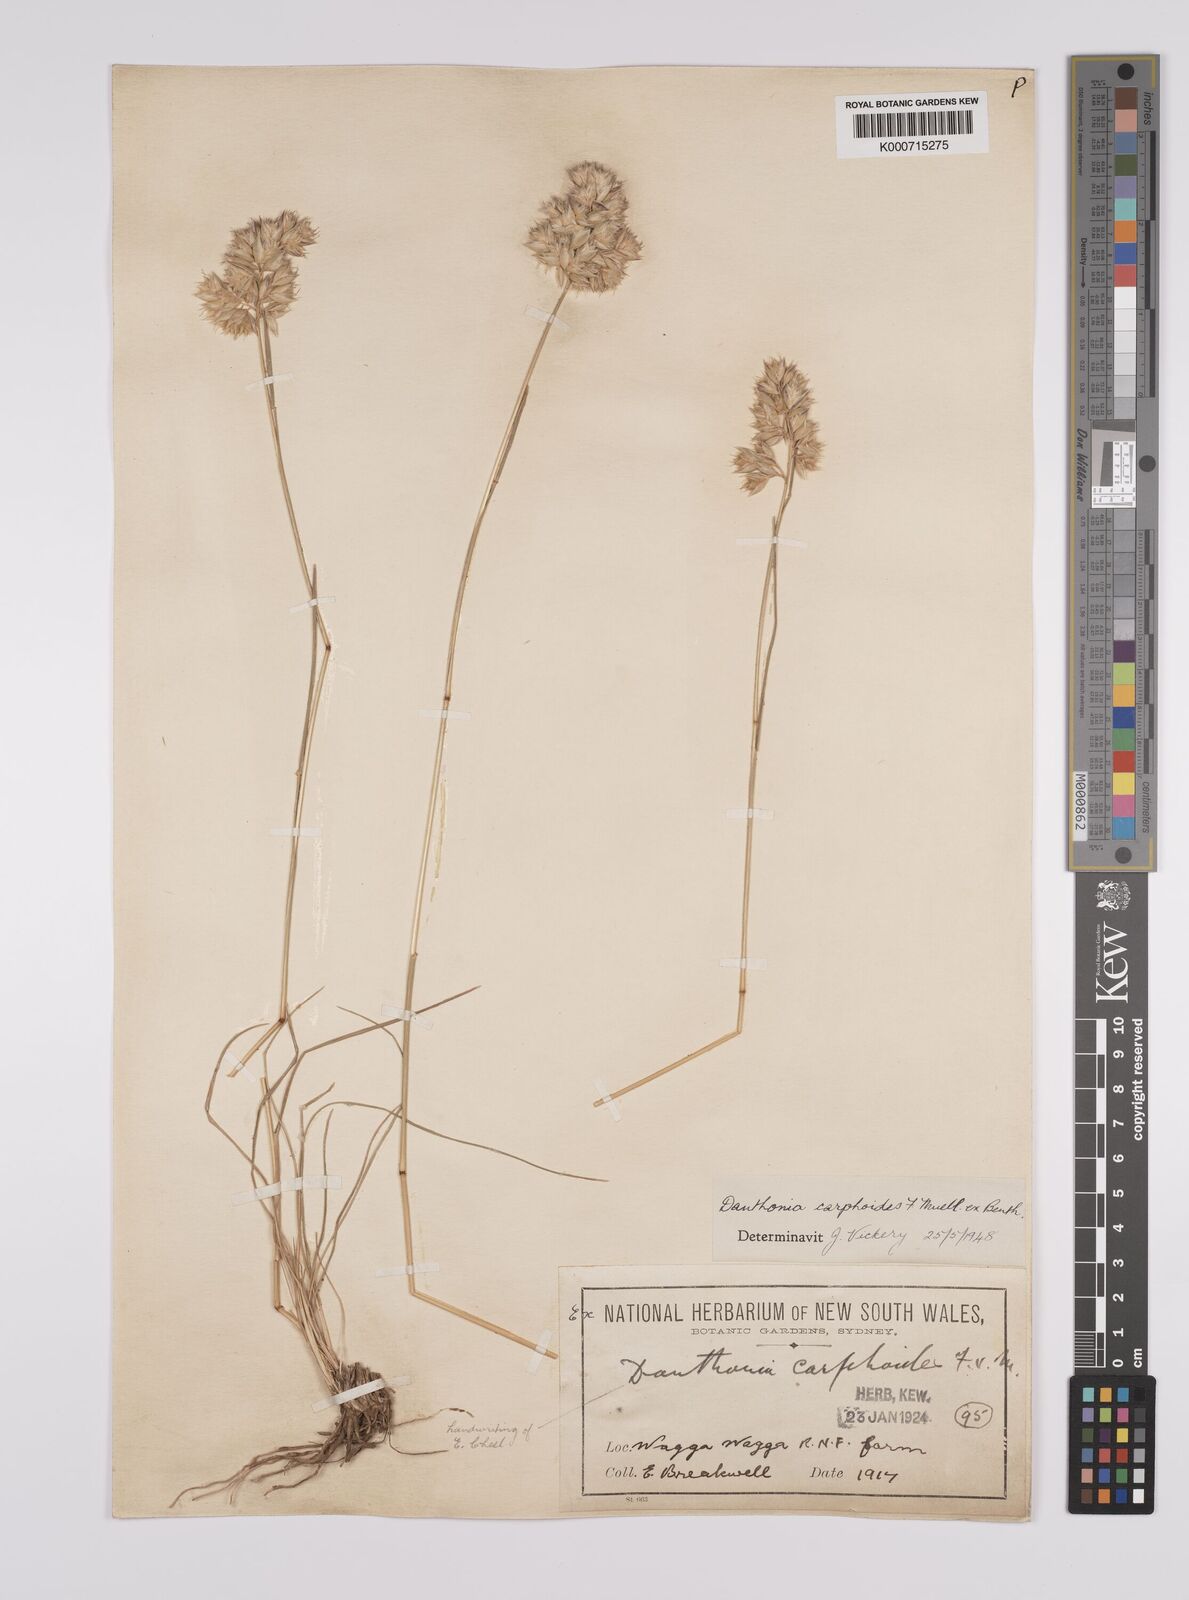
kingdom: Plantae
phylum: Tracheophyta
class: Liliopsida
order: Poales
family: Poaceae
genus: Rytidosperma
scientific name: Rytidosperma carphoides
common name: Short wallaby grass
